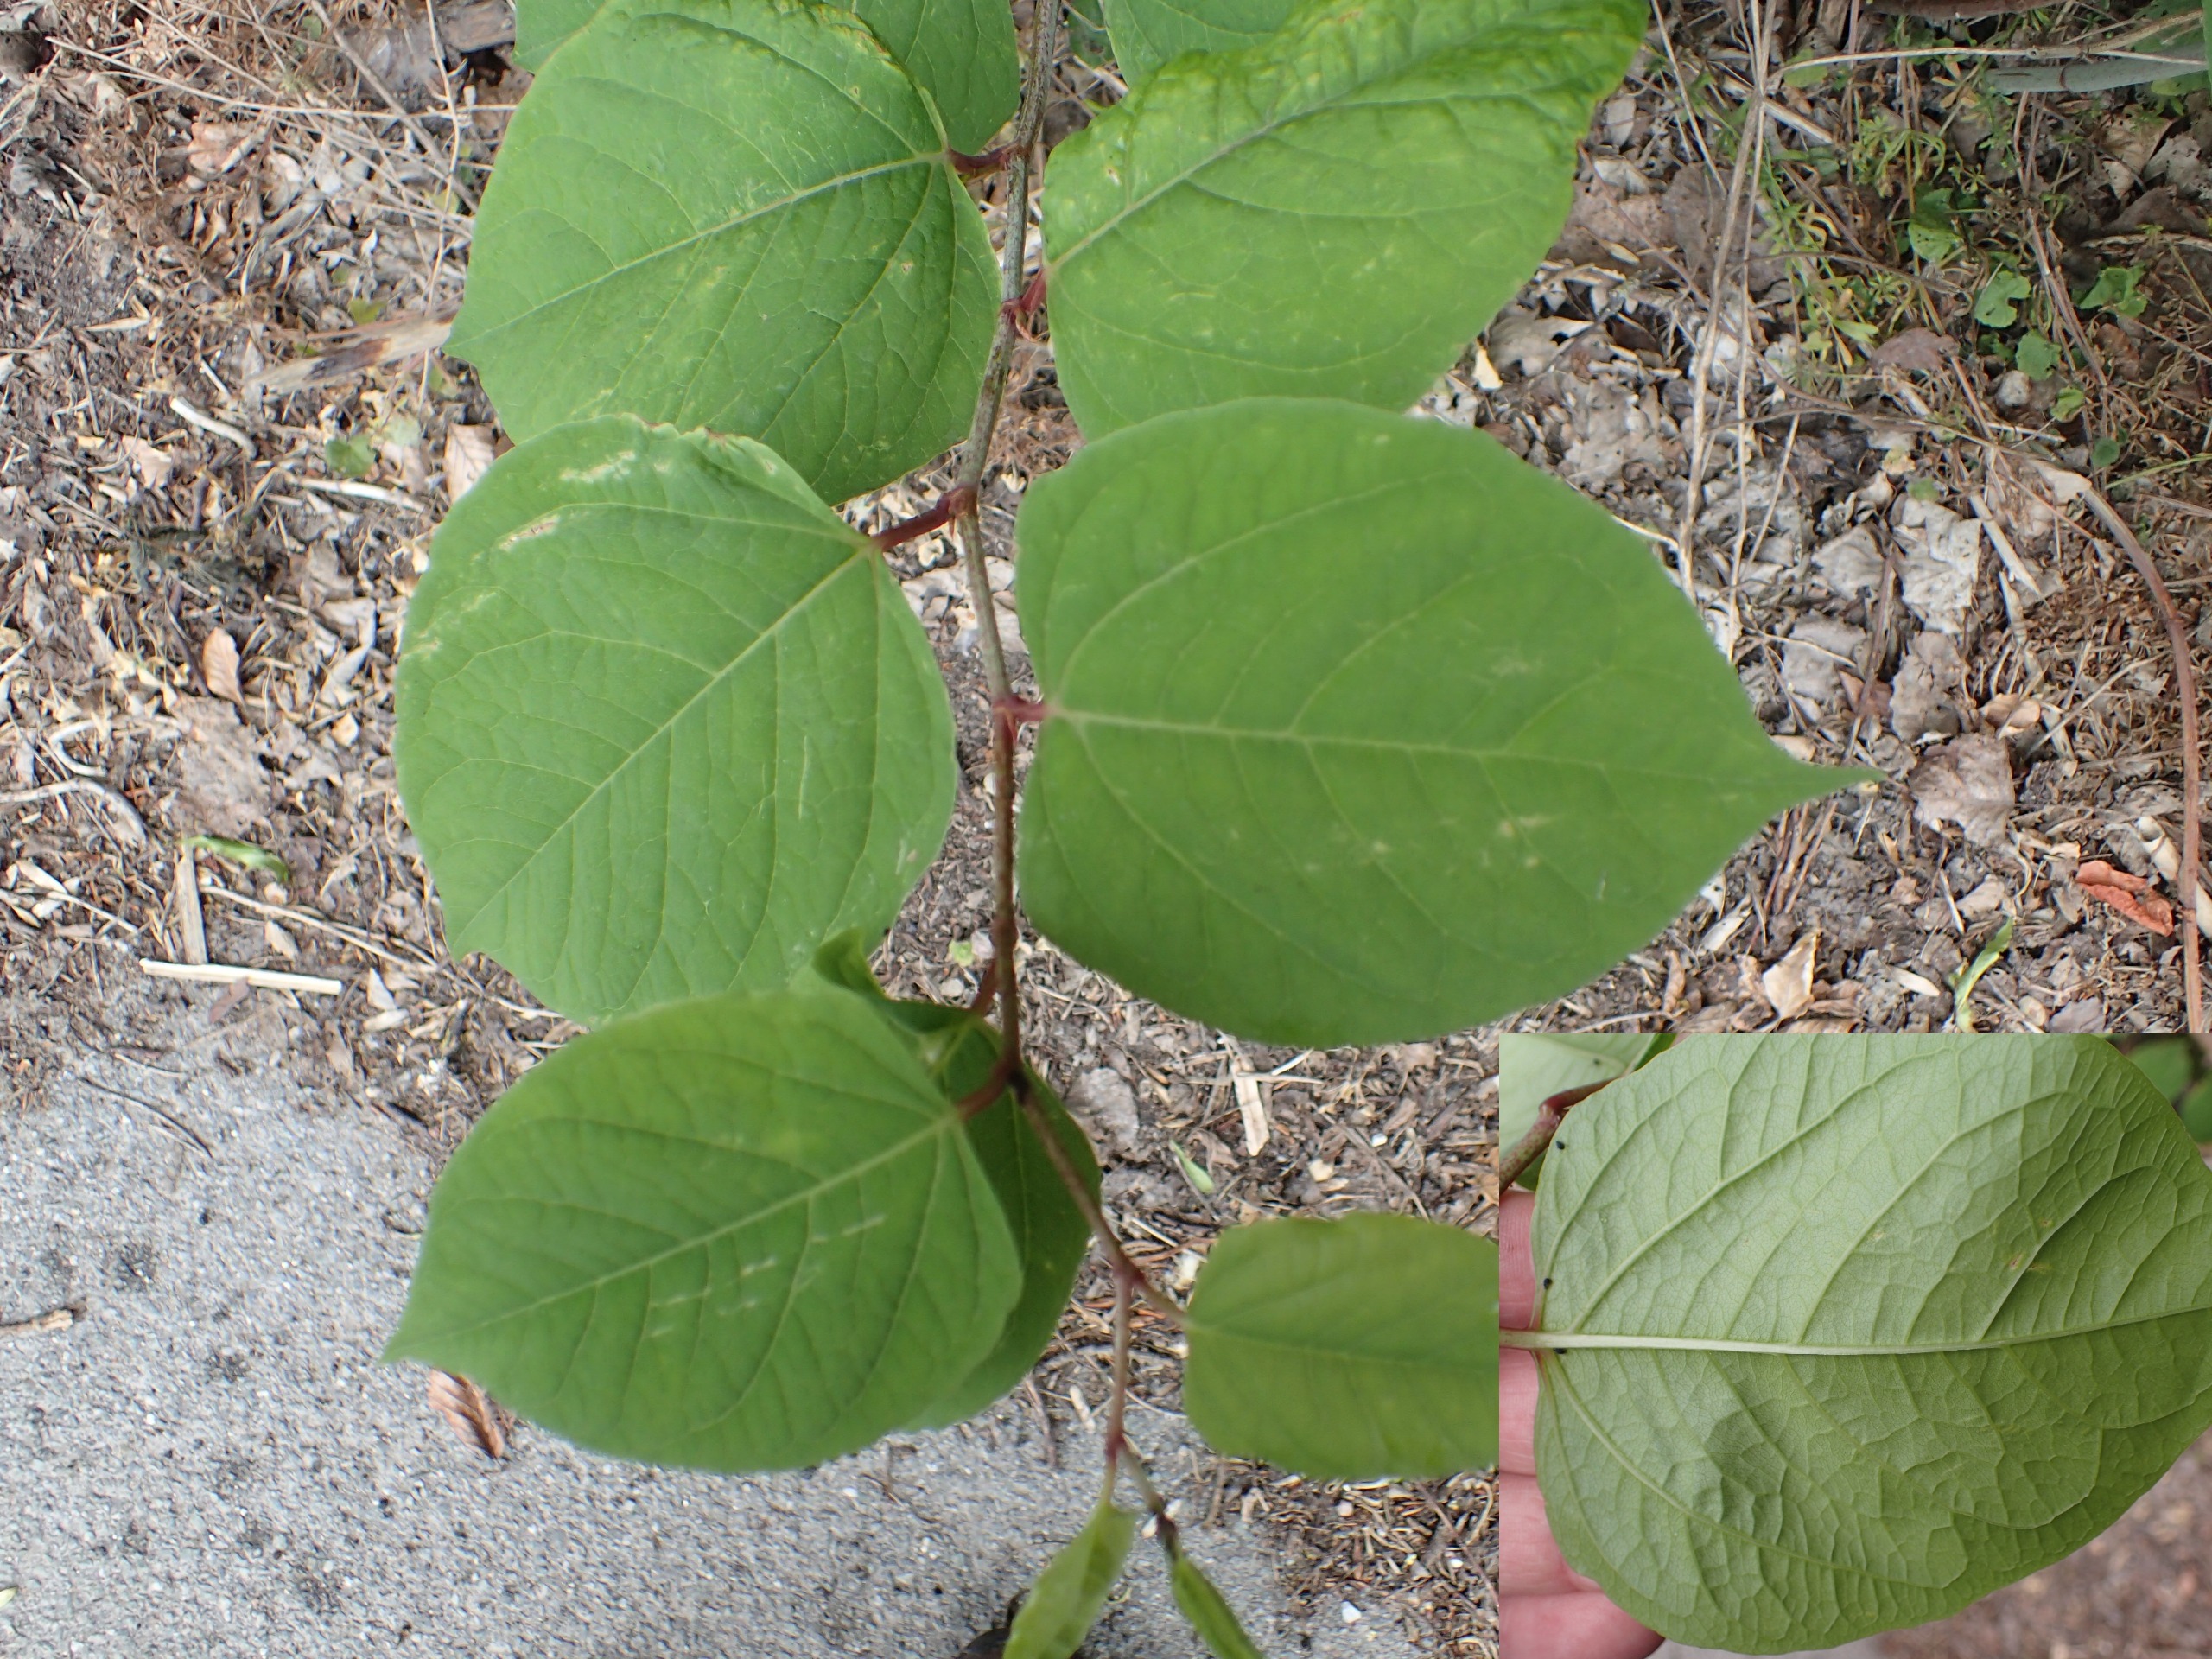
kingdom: Plantae
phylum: Tracheophyta
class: Magnoliopsida
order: Caryophyllales
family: Polygonaceae
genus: Reynoutria
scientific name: Reynoutria japonica
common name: Japan-pileurt
